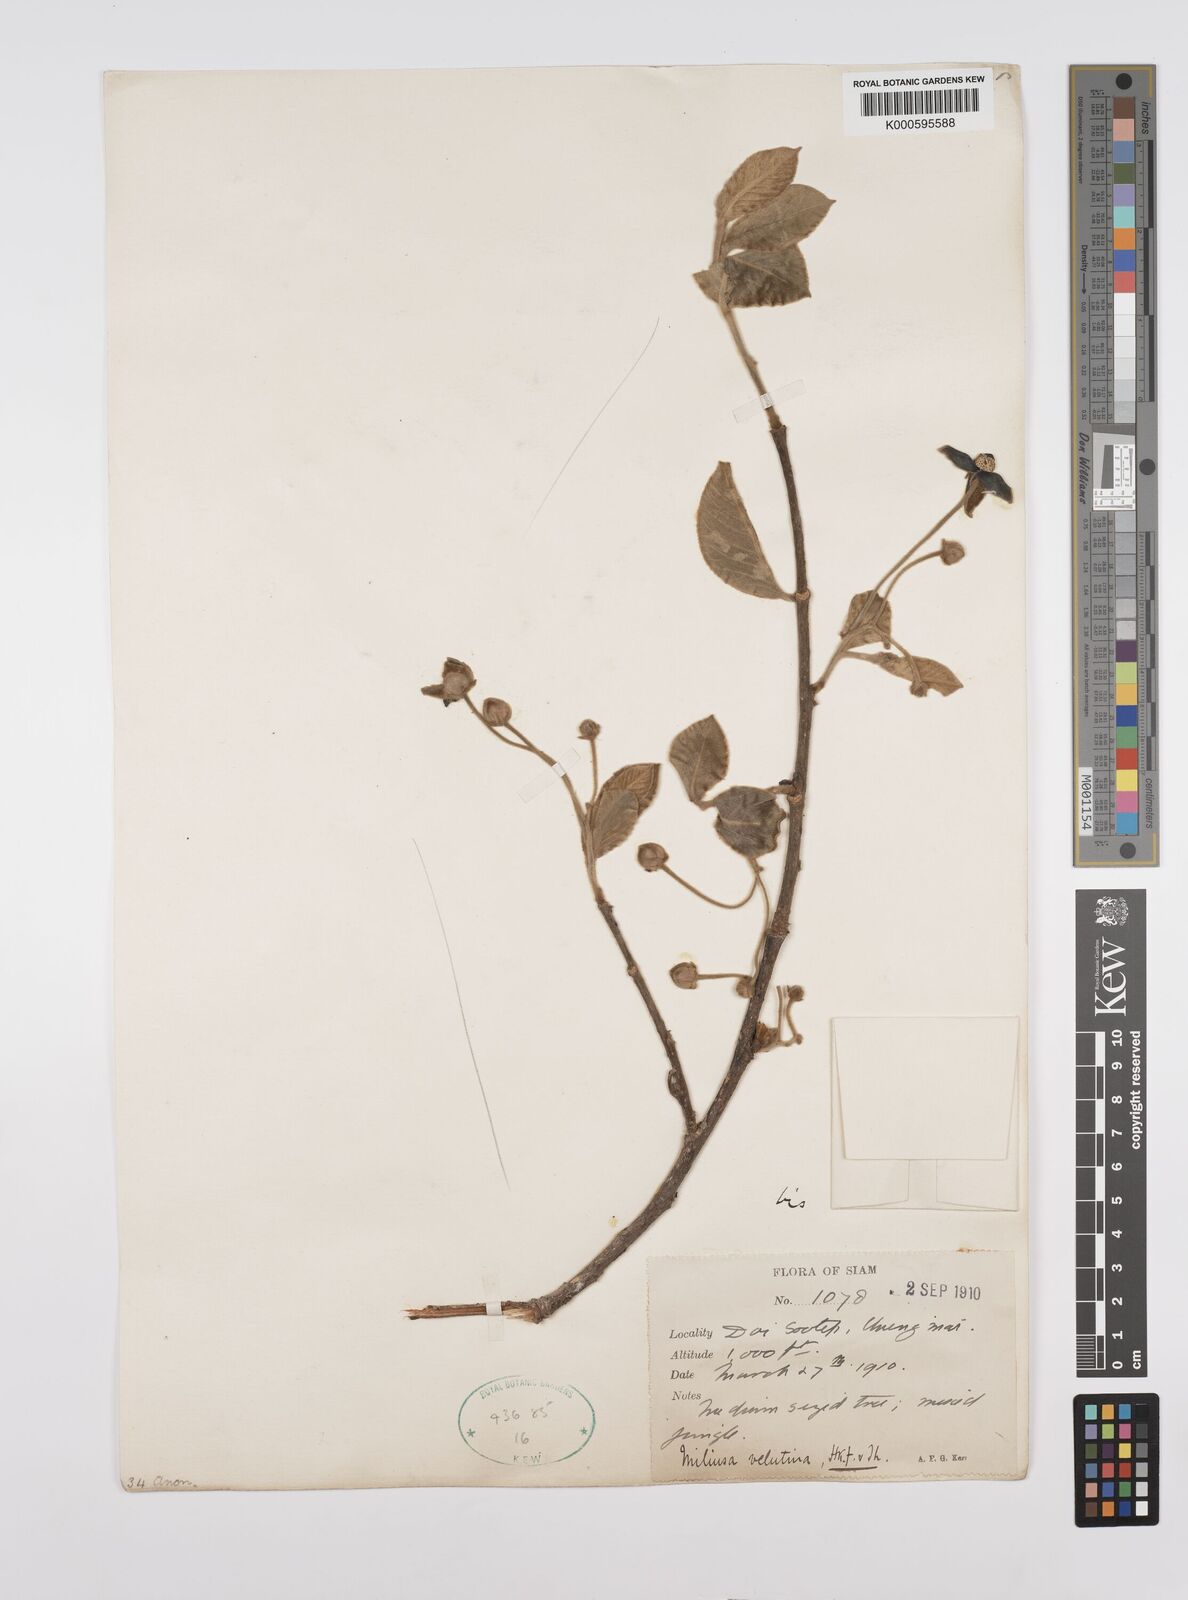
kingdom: Plantae
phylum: Tracheophyta
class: Magnoliopsida
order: Magnoliales
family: Annonaceae
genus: Miliusa
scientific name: Miliusa velutina
